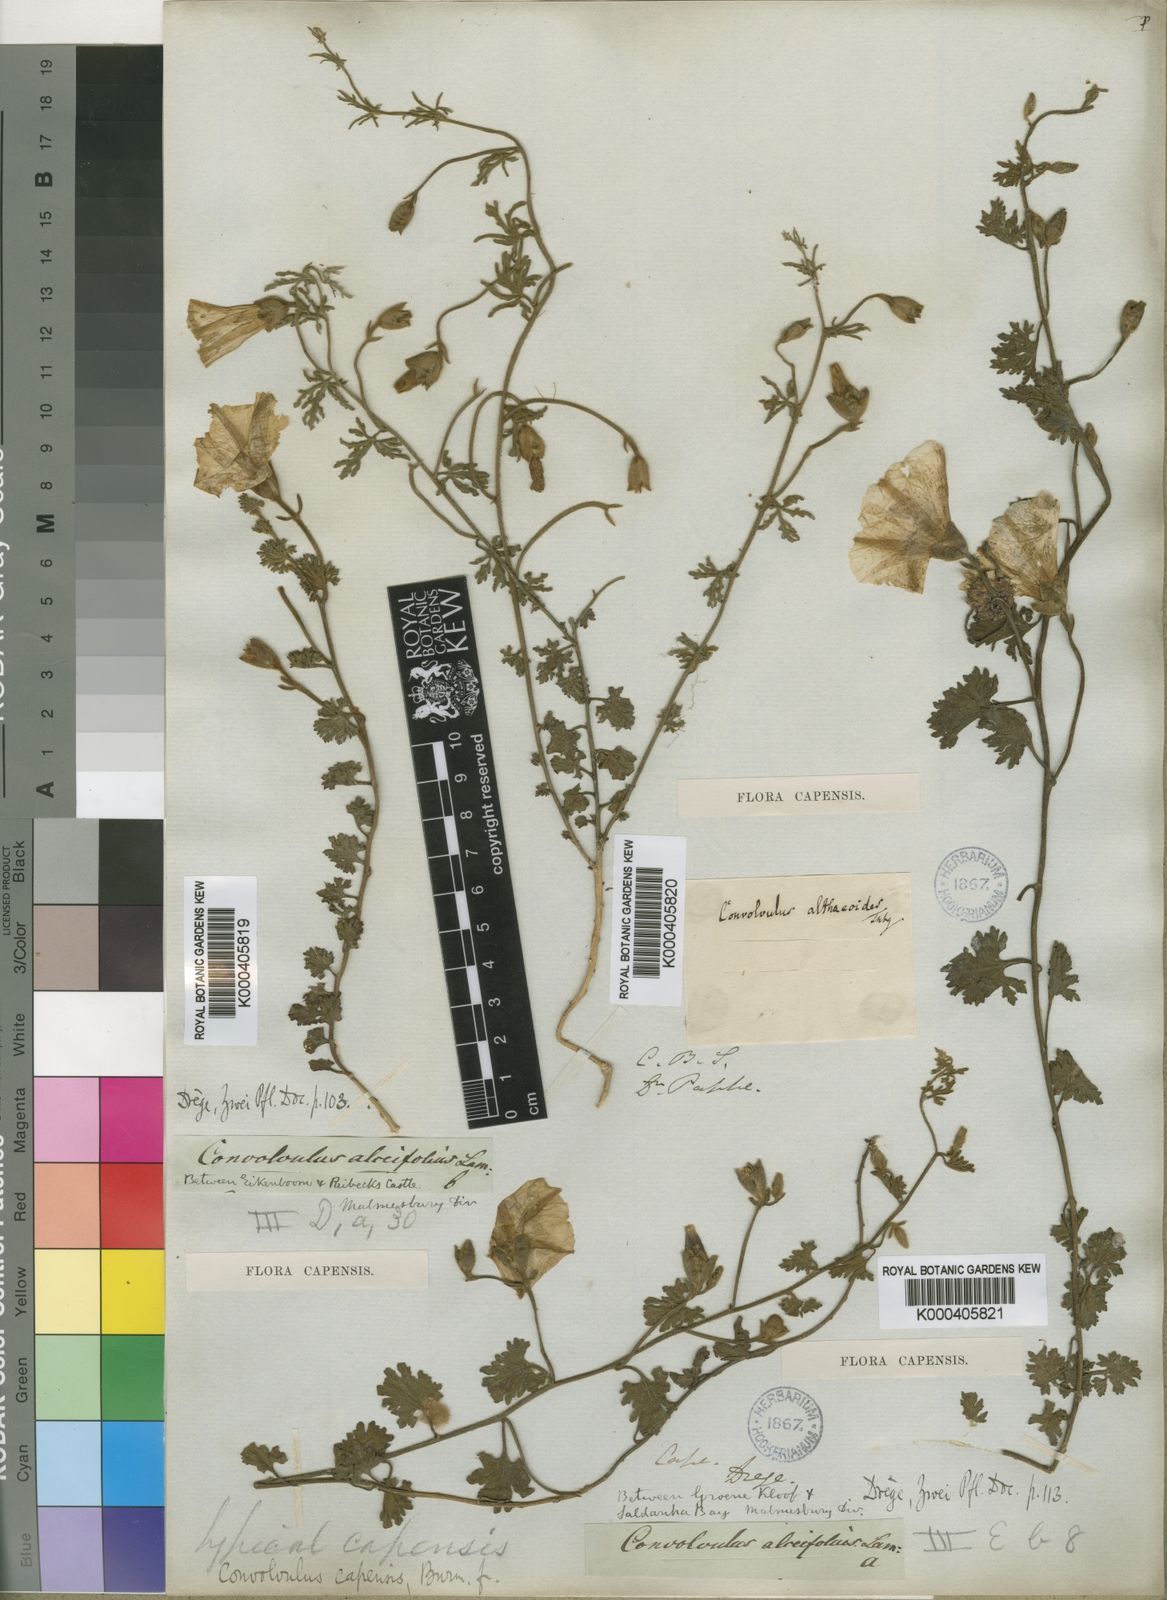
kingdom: Plantae
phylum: Tracheophyta
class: Magnoliopsida
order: Solanales
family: Convolvulaceae
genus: Convolvulus
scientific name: Convolvulus capensis
